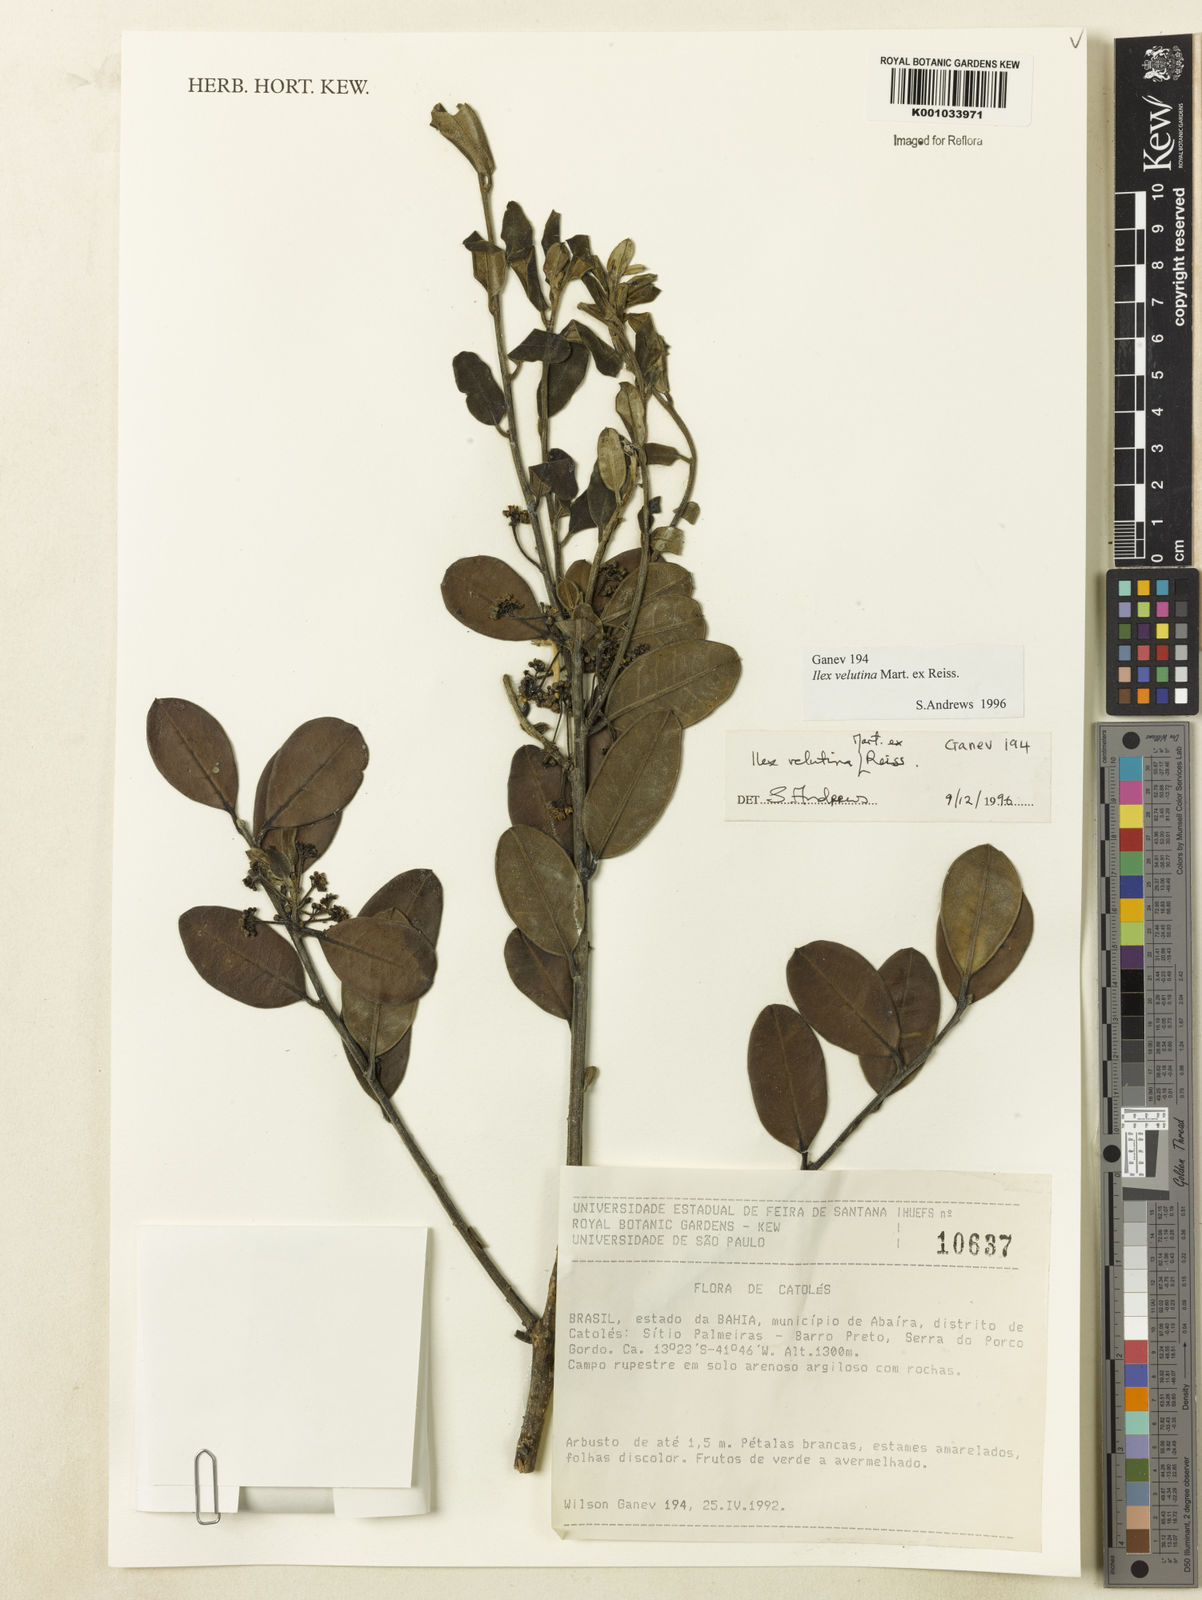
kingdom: Plantae
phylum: Tracheophyta
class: Magnoliopsida
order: Aquifoliales
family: Aquifoliaceae
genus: Ilex
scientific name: Ilex velutina
